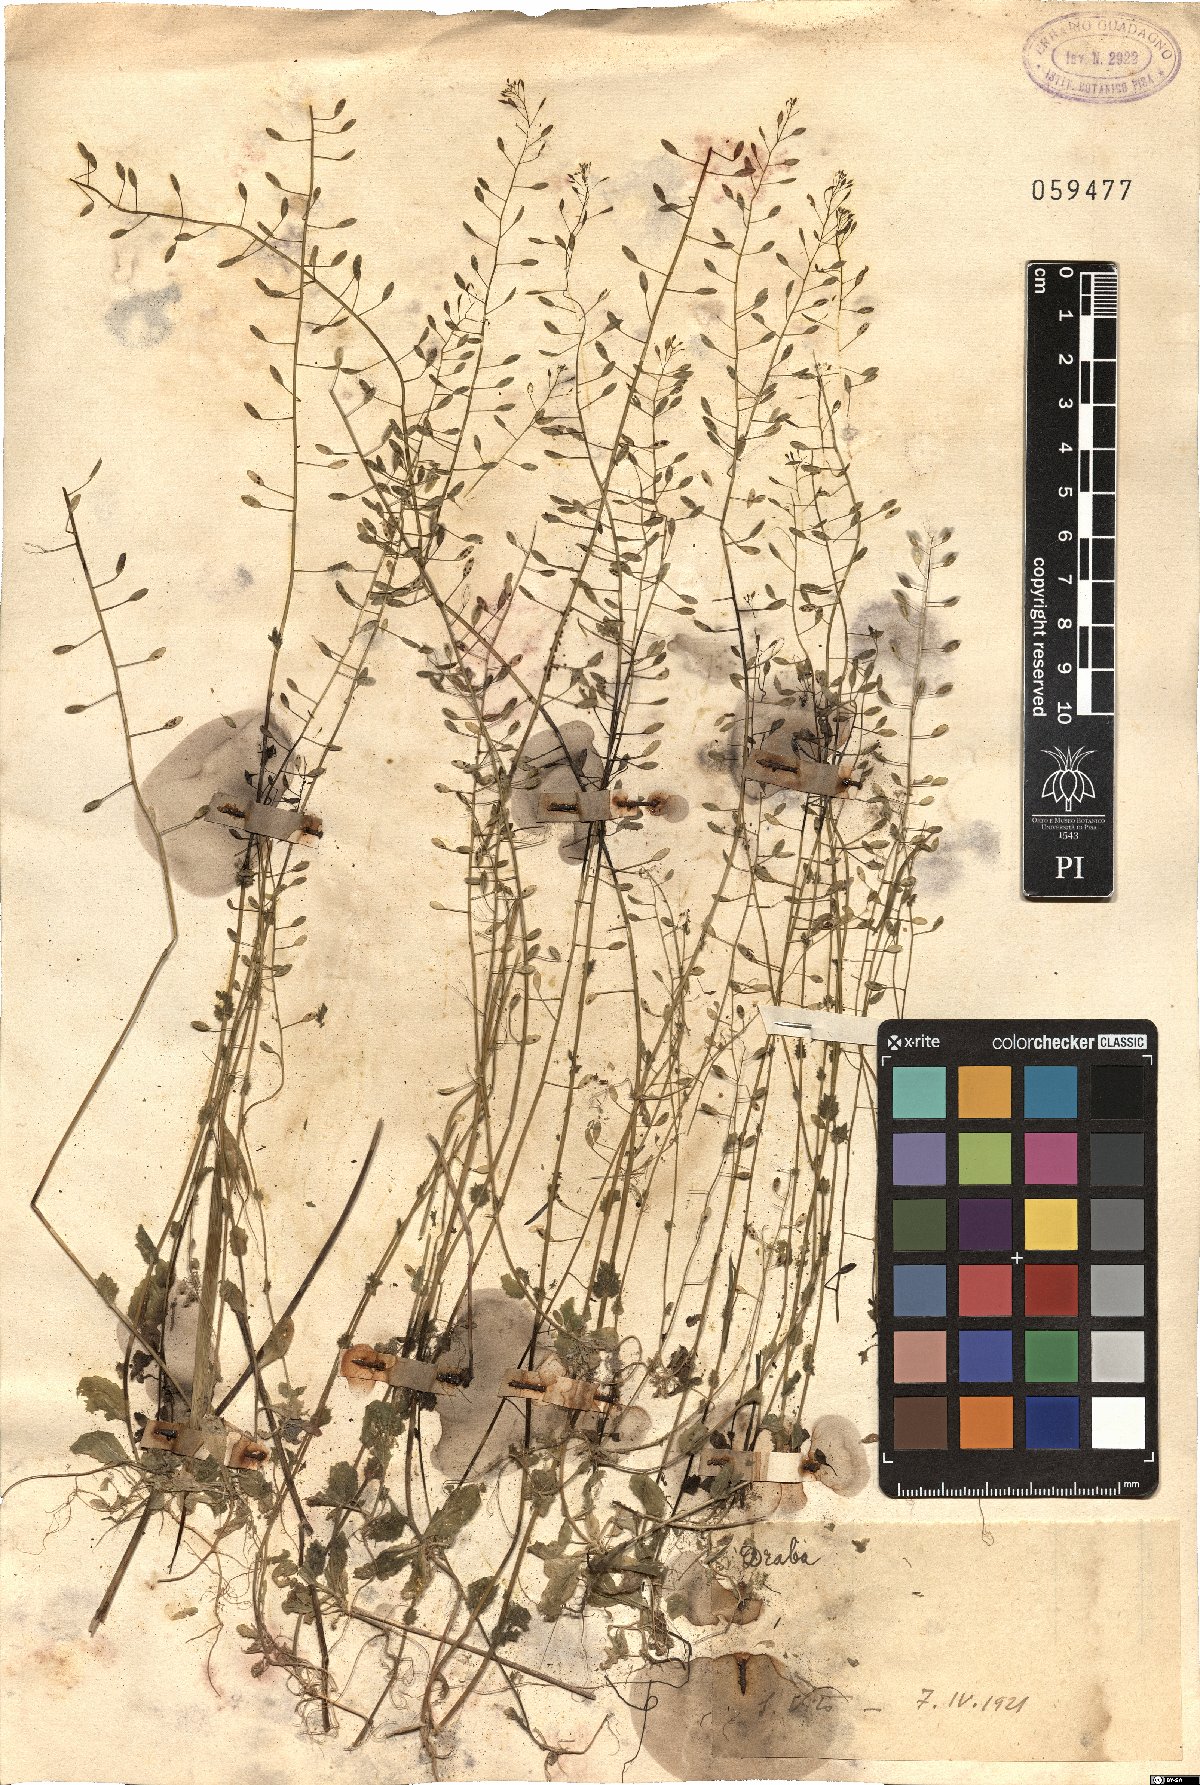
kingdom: Plantae
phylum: Tracheophyta
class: Magnoliopsida
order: Brassicales
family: Brassicaceae
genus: Draba
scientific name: Draba
